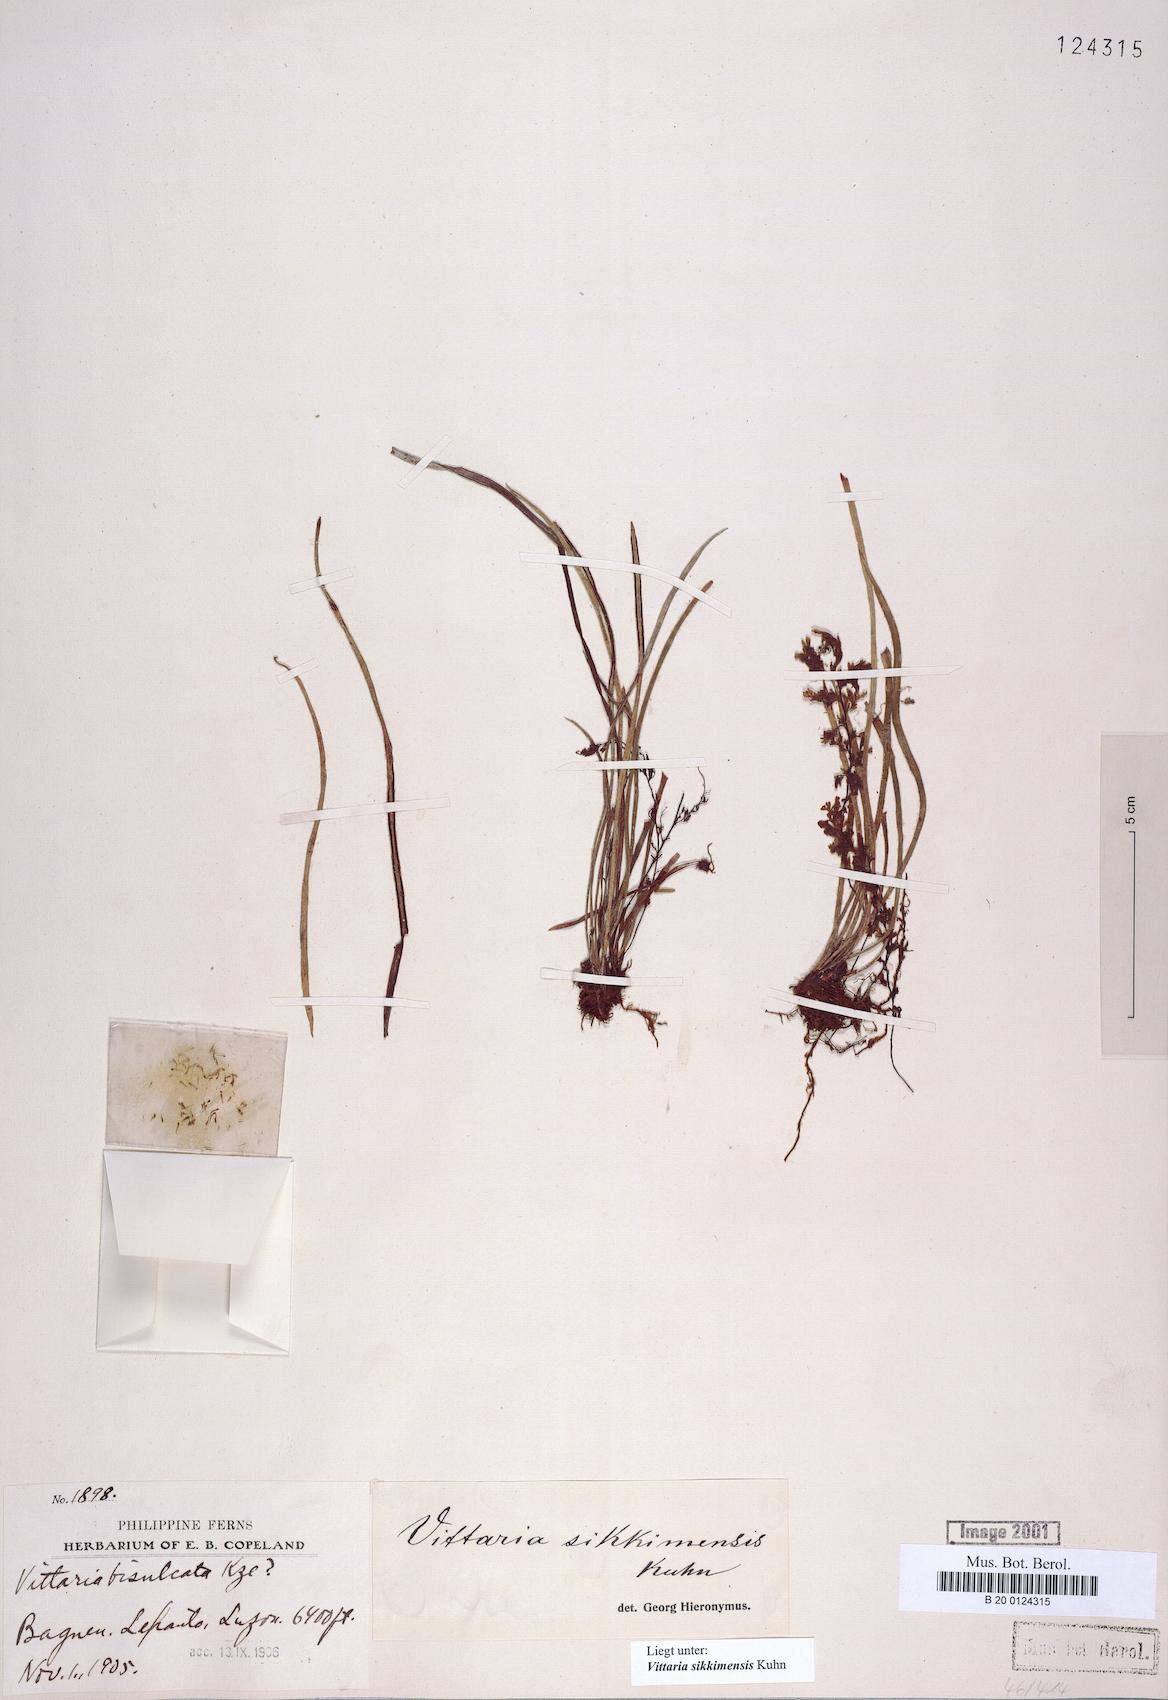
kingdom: Plantae
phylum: Tracheophyta
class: Polypodiopsida
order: Polypodiales
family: Pteridaceae
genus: Haplopteris
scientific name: Haplopteris sikkimensis
